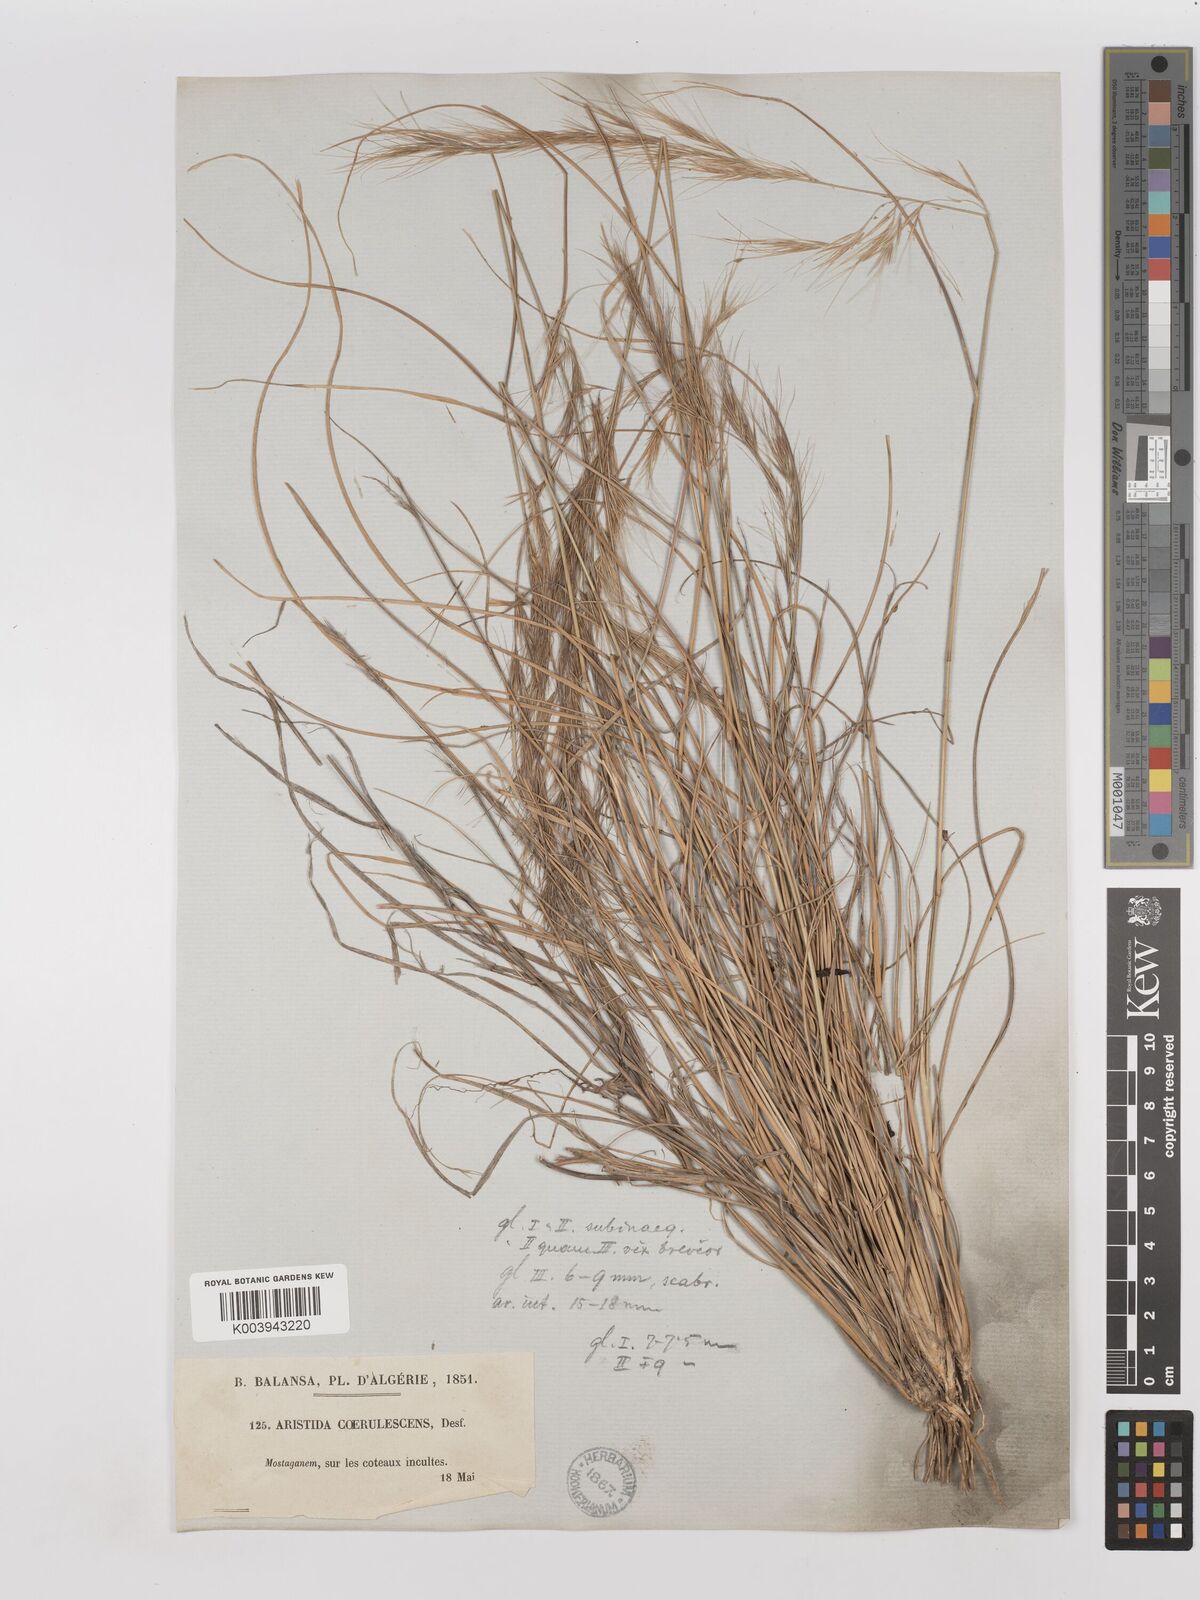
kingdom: Plantae
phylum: Tracheophyta
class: Liliopsida
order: Poales
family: Poaceae
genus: Aristida
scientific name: Aristida adscensionis
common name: Sixweeks threeawn
